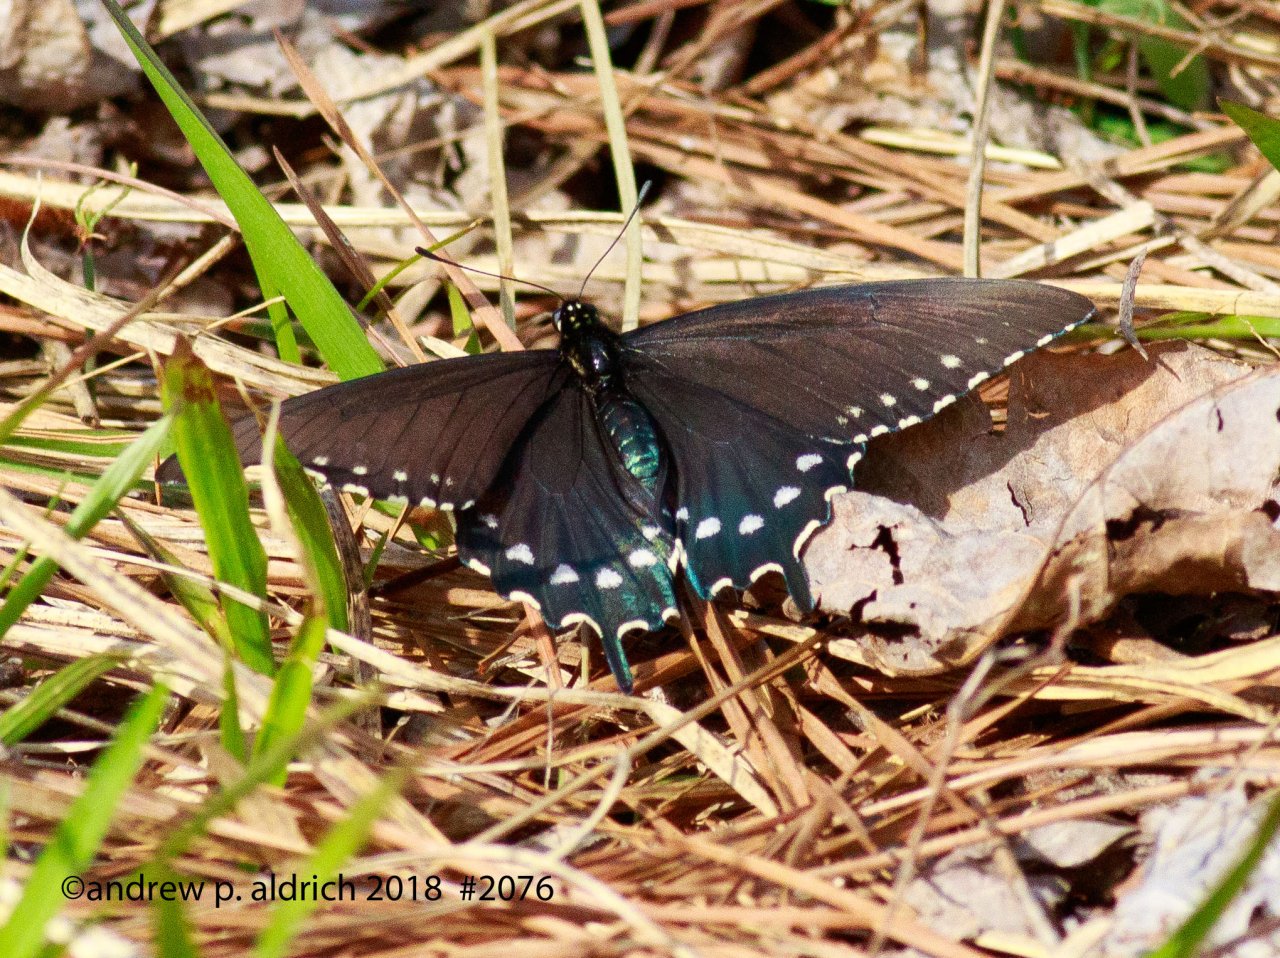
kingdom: Animalia
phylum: Arthropoda
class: Insecta
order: Lepidoptera
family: Papilionidae
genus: Battus
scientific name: Battus philenor
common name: Pipevine Swallowtail
